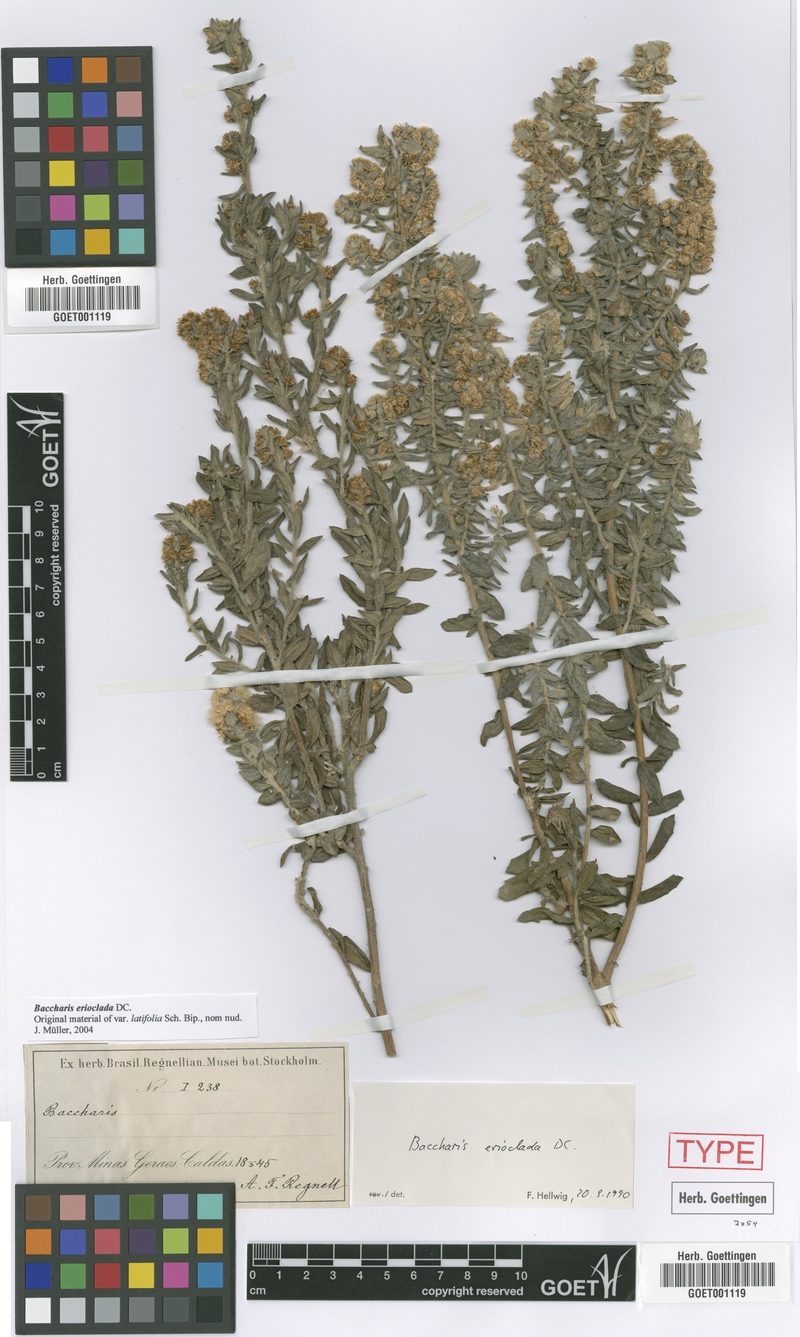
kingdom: Plantae
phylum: Tracheophyta
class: Magnoliopsida
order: Asterales
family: Asteraceae
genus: Baccharis
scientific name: Baccharis erioclada
